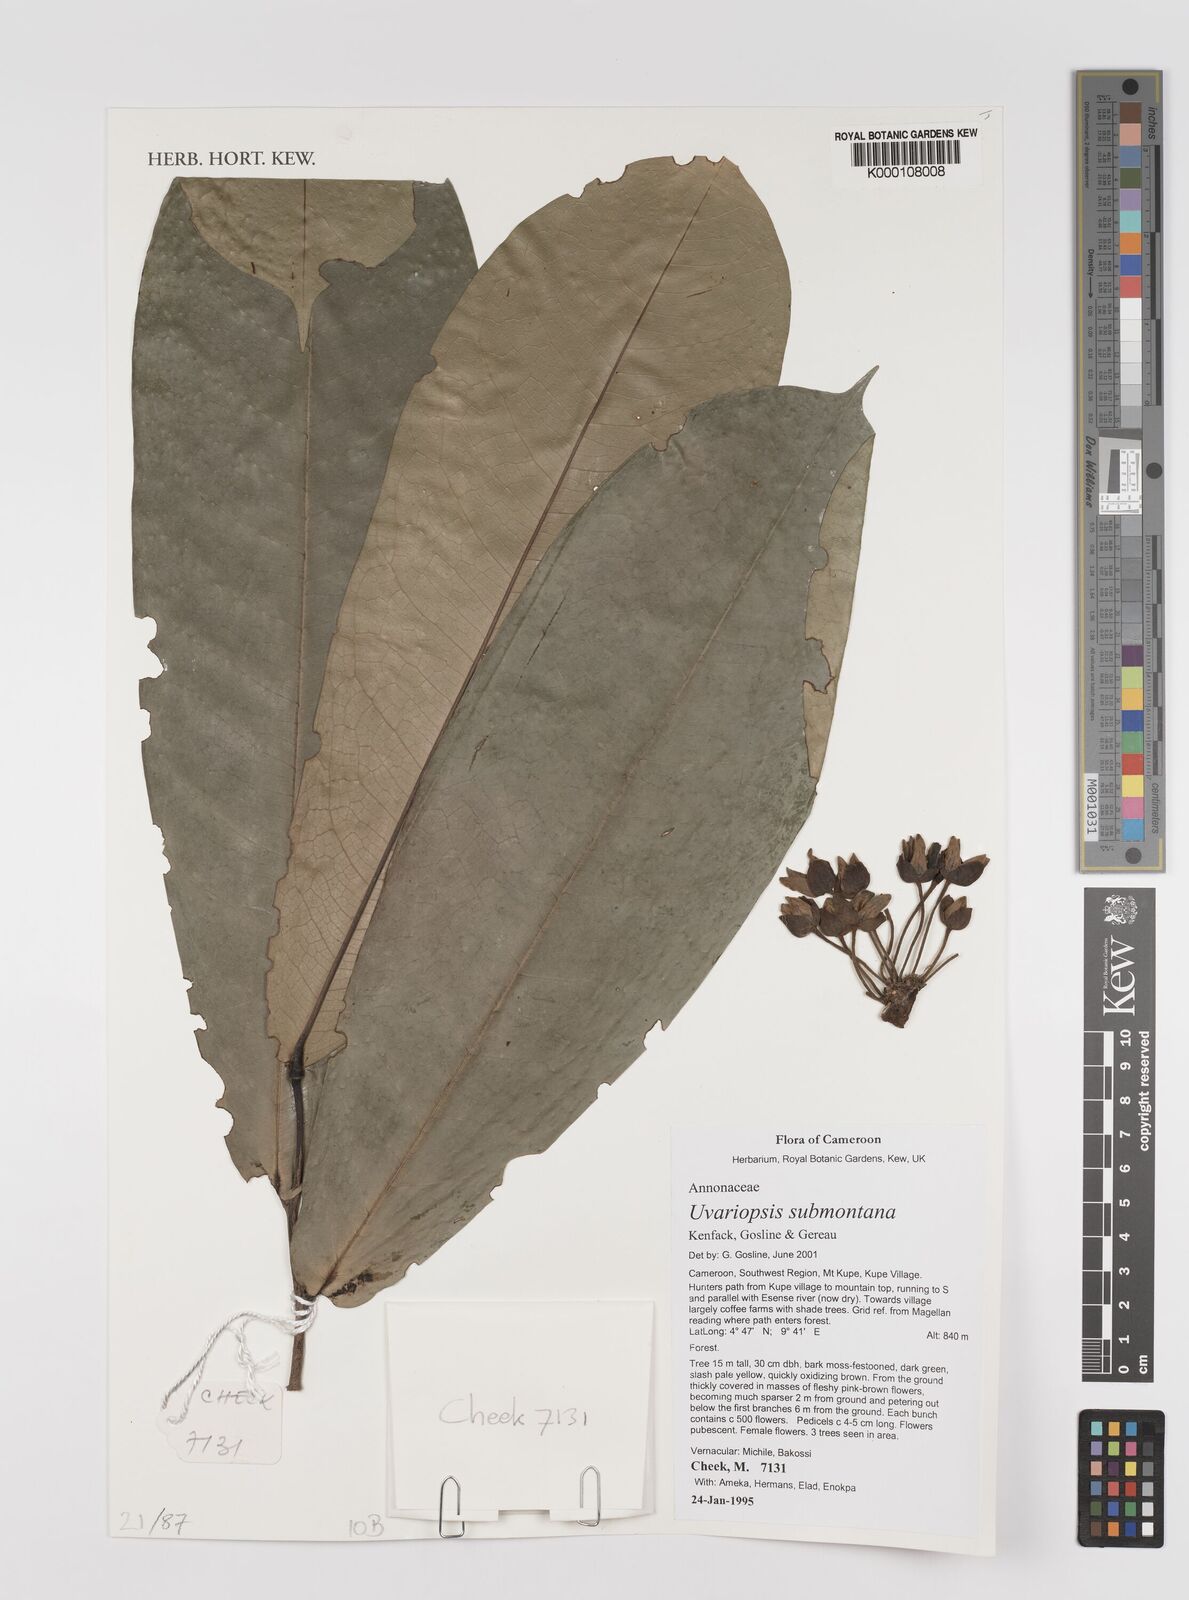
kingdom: Plantae
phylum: Tracheophyta
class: Magnoliopsida
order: Magnoliales
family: Annonaceae
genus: Uvariopsis
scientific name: Uvariopsis submontana
